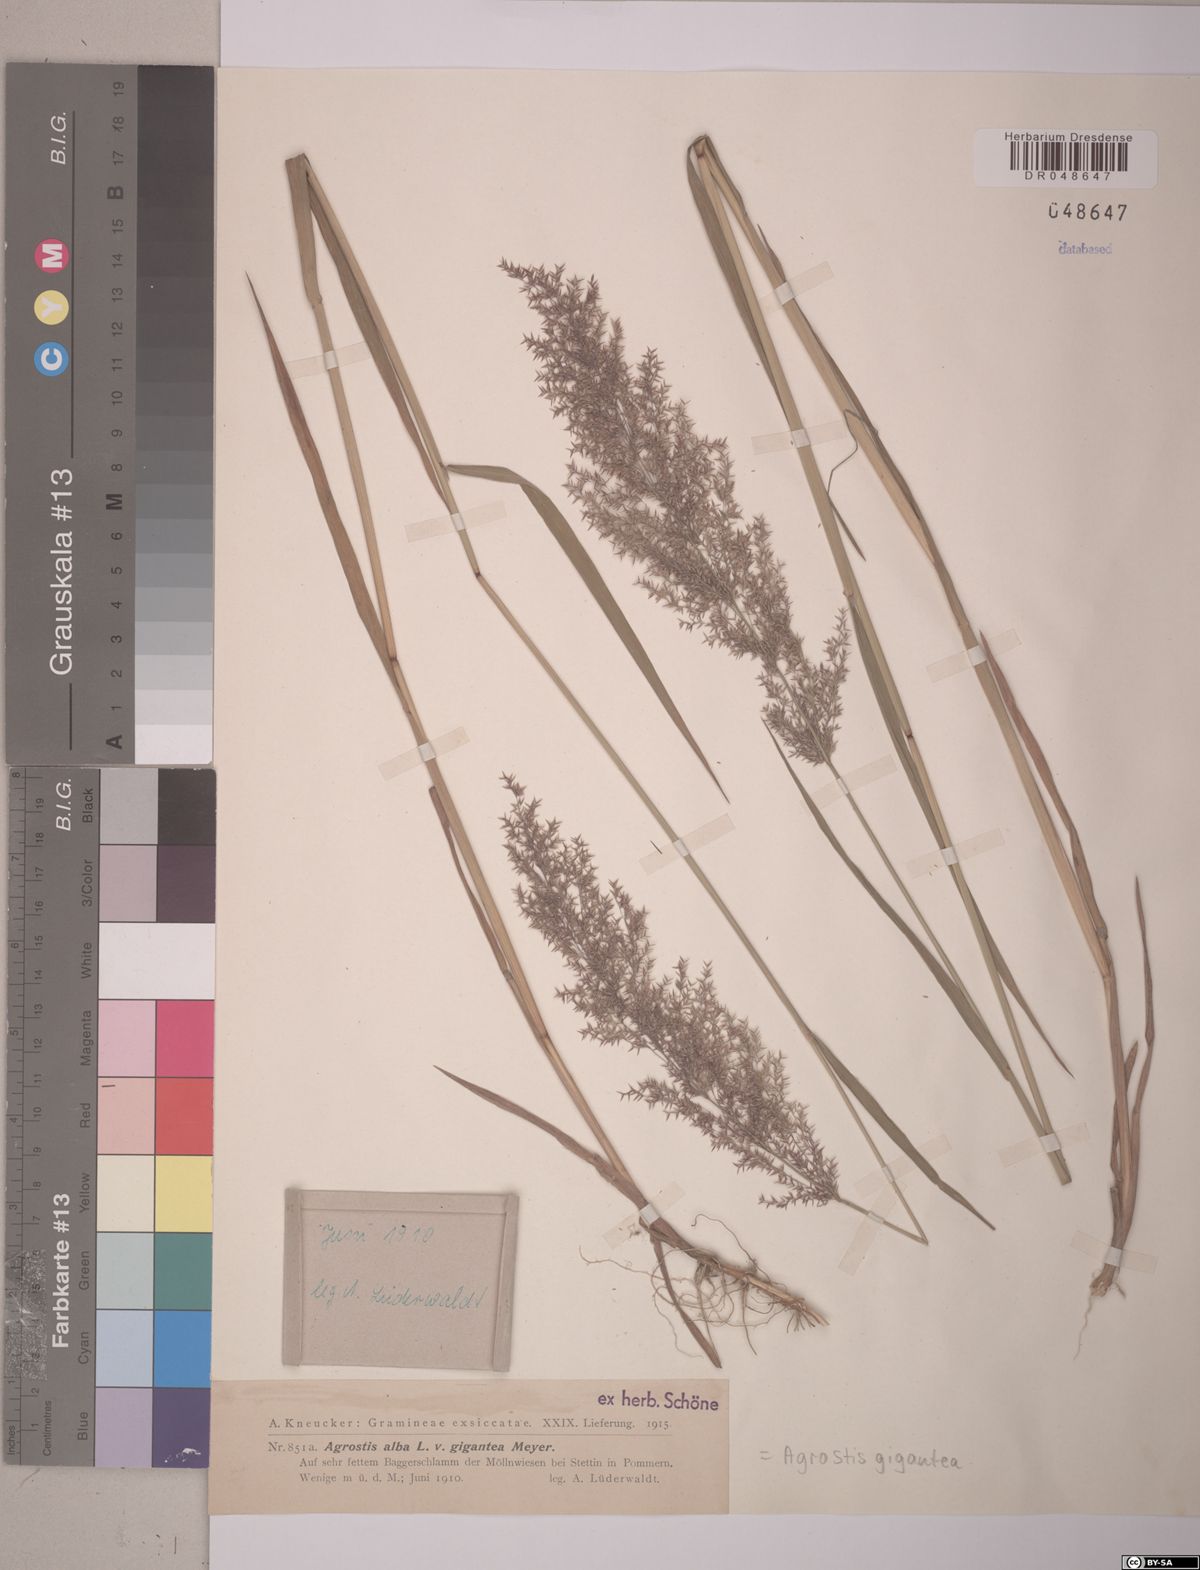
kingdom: Plantae
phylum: Tracheophyta
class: Liliopsida
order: Poales
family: Poaceae
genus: Agrostis
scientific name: Agrostis gigantea
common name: Black bent
